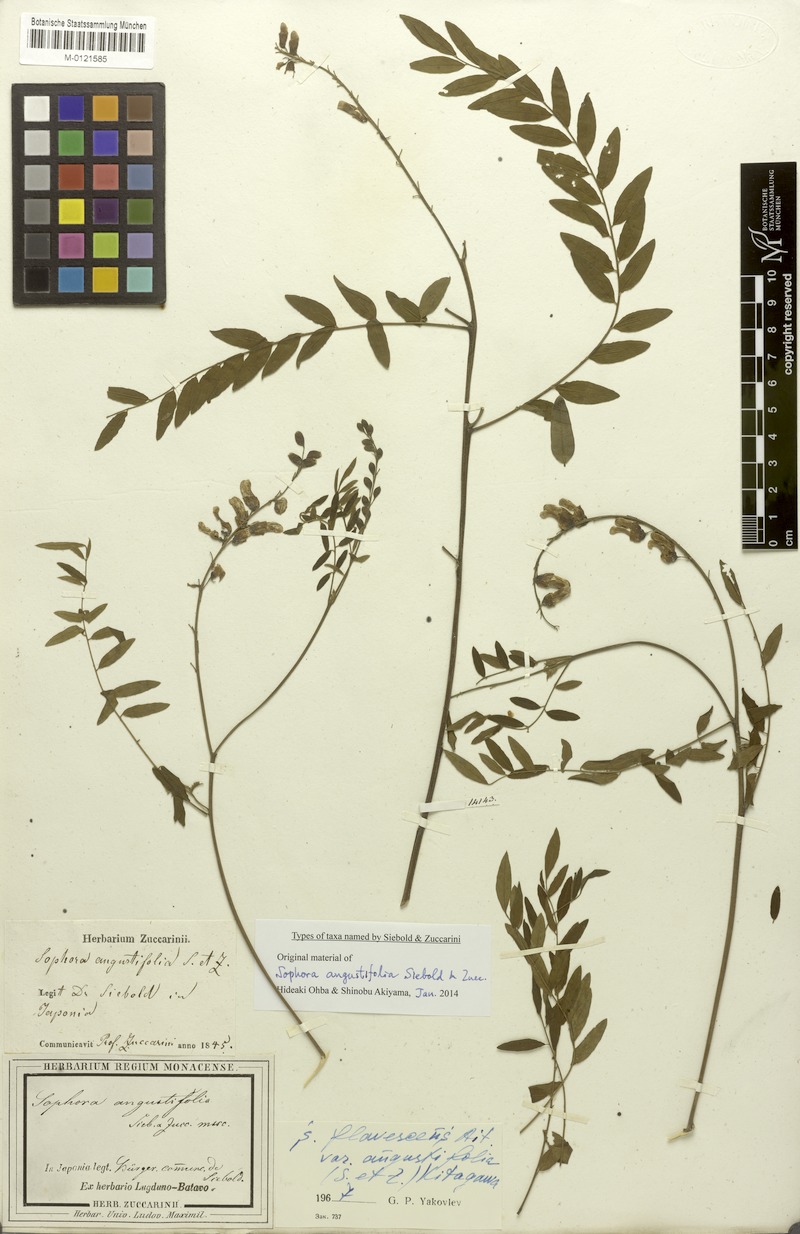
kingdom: Plantae
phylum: Tracheophyta
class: Magnoliopsida
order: Fabales
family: Fabaceae
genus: Sophora
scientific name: Sophora flavescens
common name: Shrubby sophora
